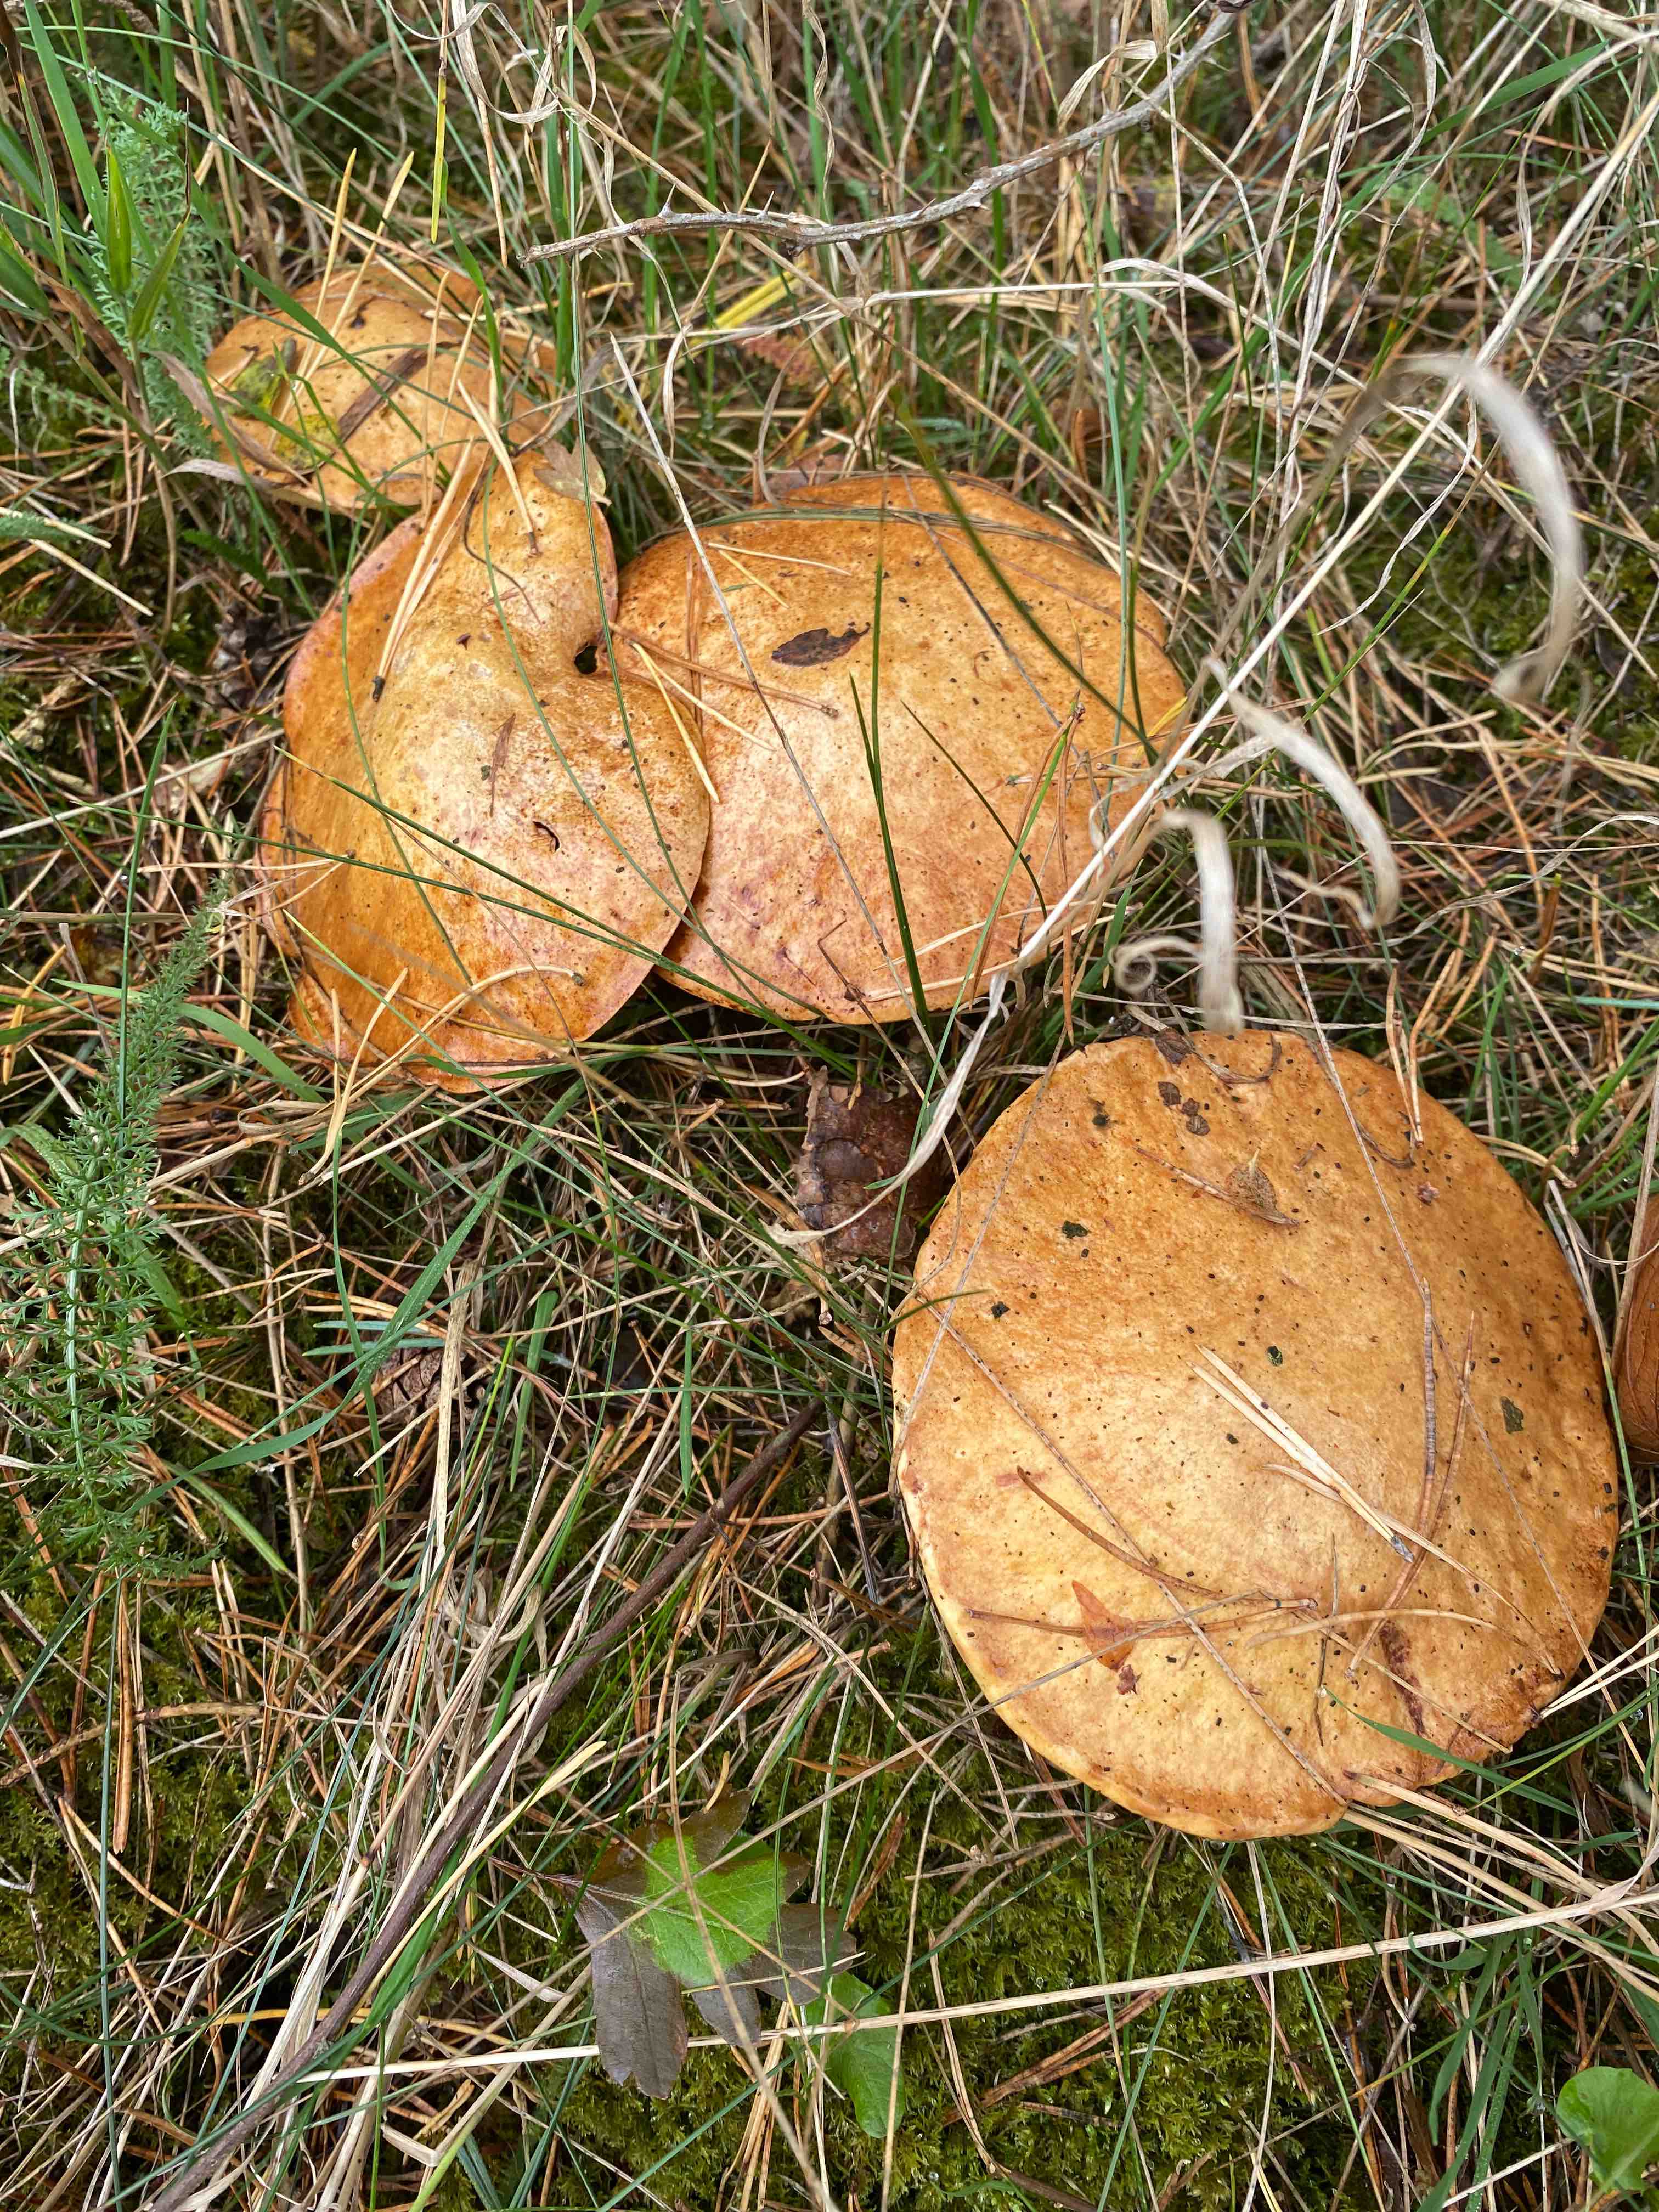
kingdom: Fungi
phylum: Basidiomycota
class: Agaricomycetes
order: Boletales
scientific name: Boletales
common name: rørhatordenen
